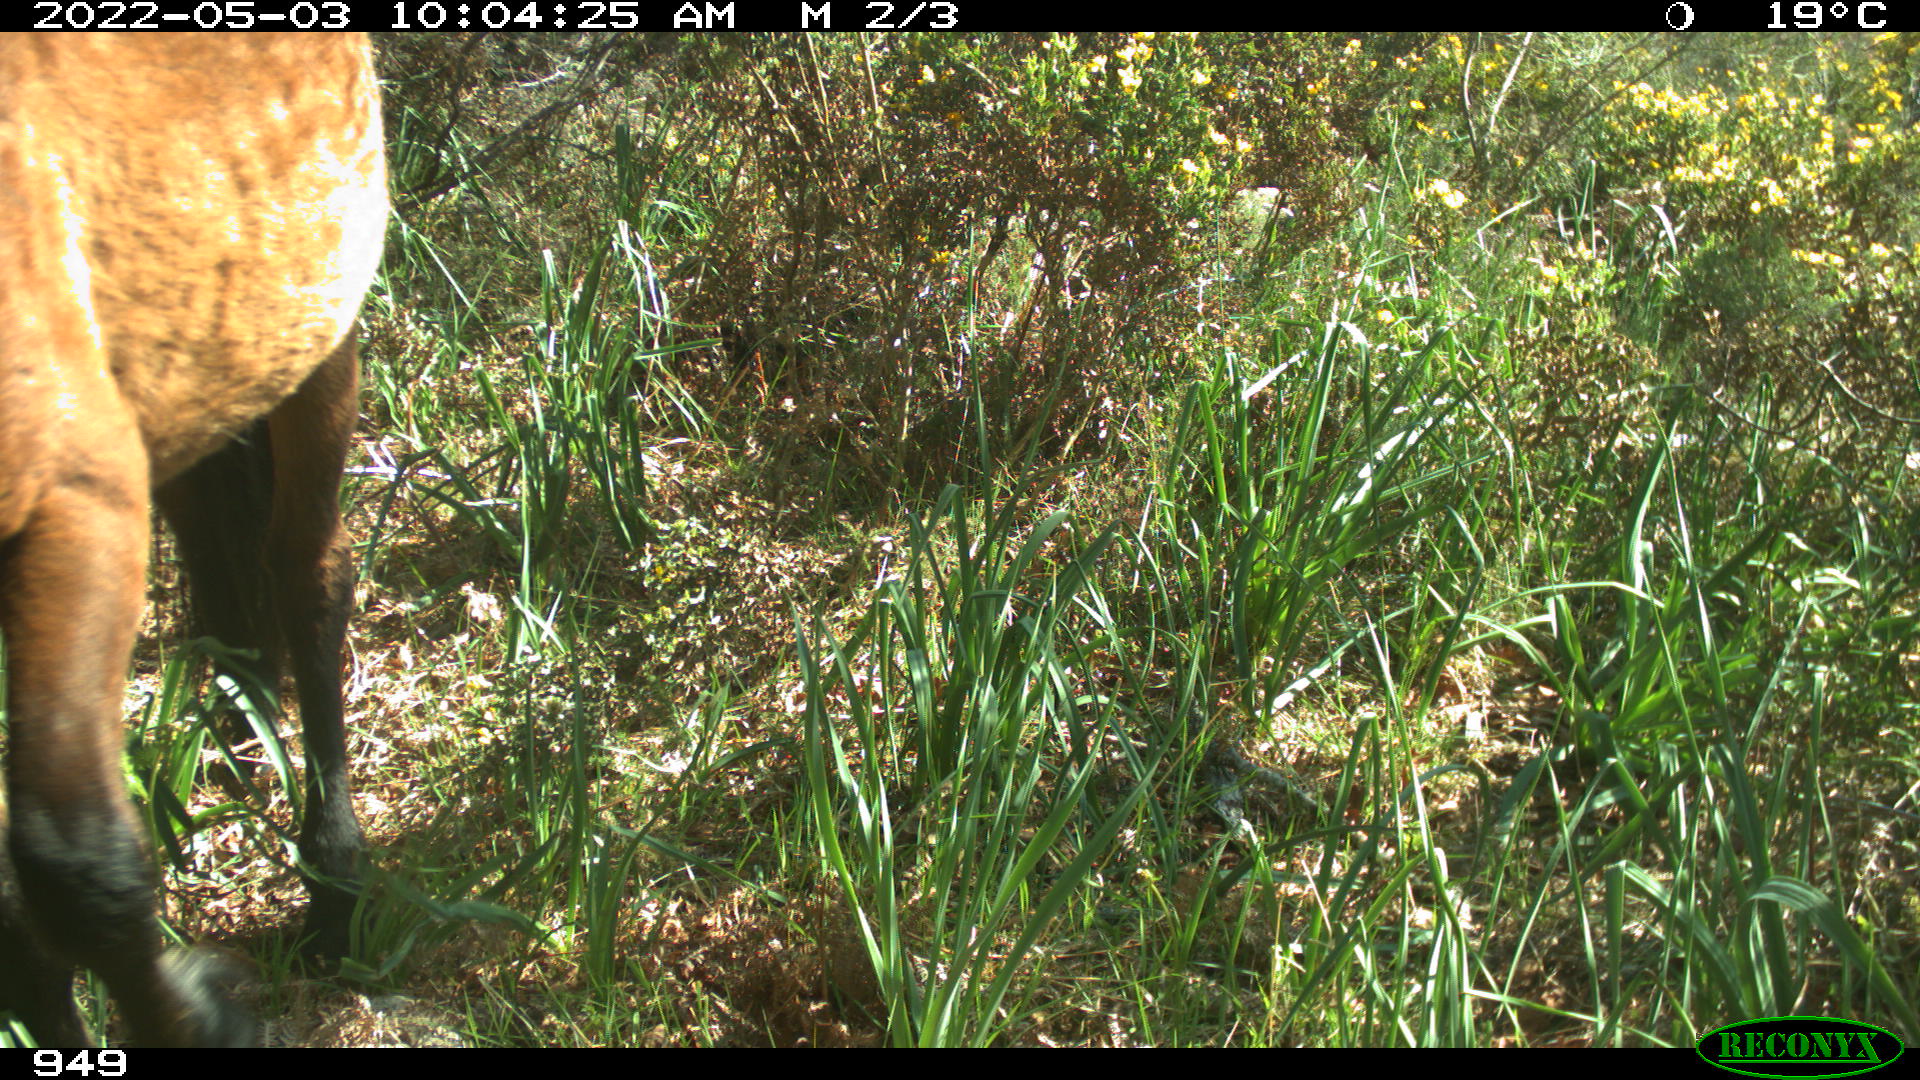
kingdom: Animalia
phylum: Chordata
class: Mammalia
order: Perissodactyla
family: Equidae
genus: Equus
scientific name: Equus caballus
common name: Horse
